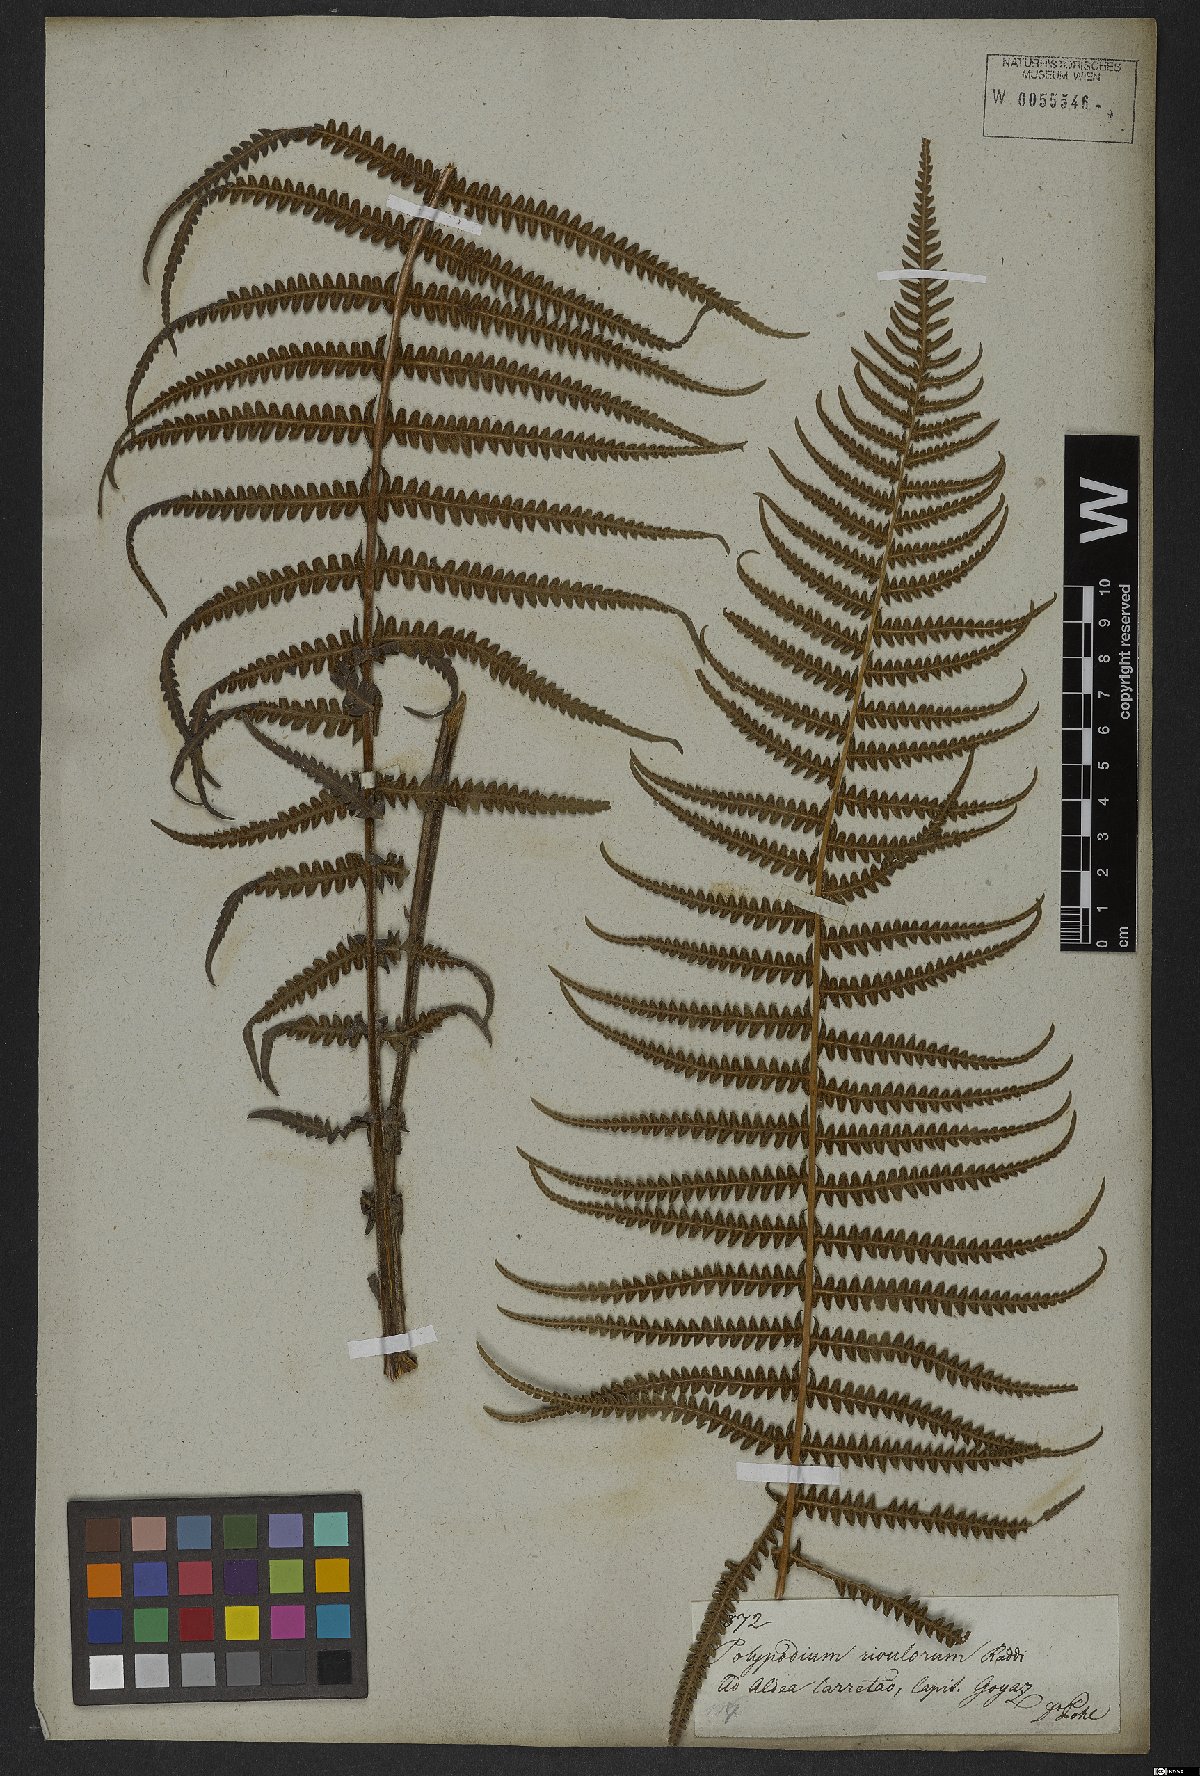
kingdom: Plantae
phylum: Tracheophyta
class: Polypodiopsida
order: Polypodiales
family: Thelypteridaceae
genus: Amauropelta
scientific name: Amauropelta opposita
